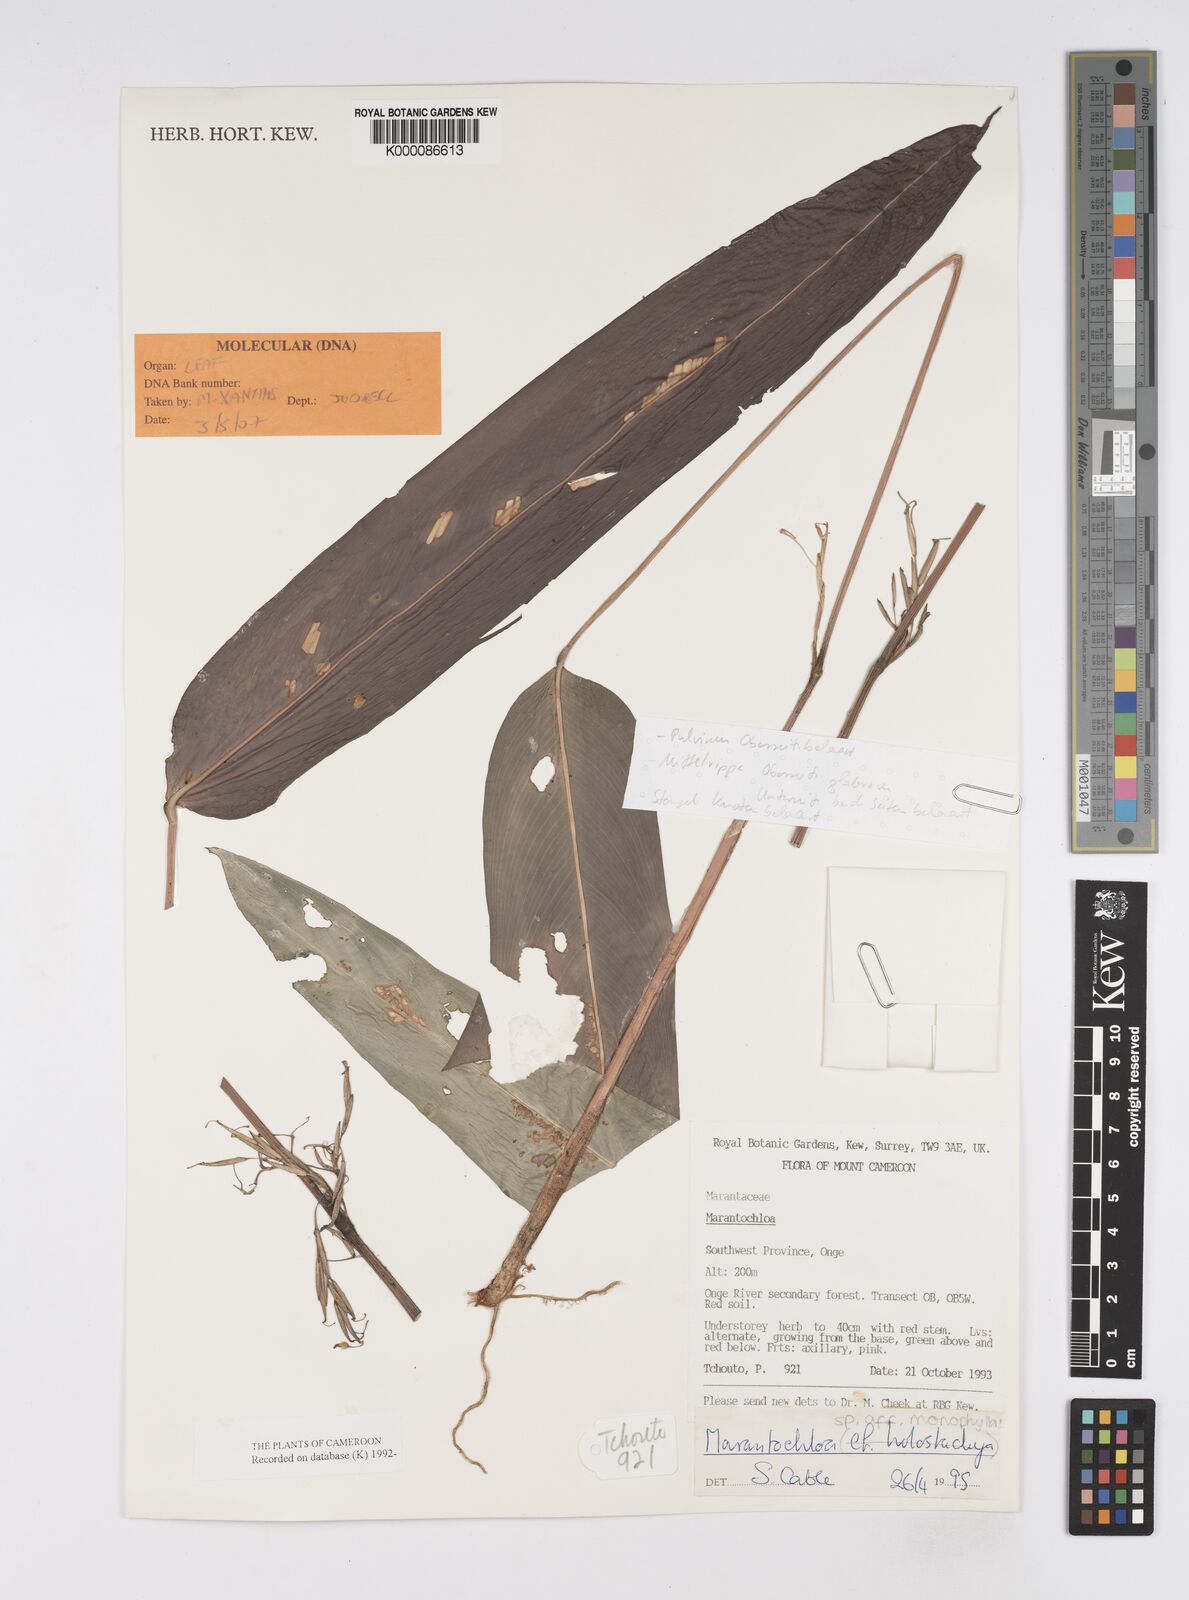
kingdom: Plantae
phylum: Tracheophyta
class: Liliopsida
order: Zingiberales
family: Marantaceae
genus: Marantochloa
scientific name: Marantochloa monophylla
